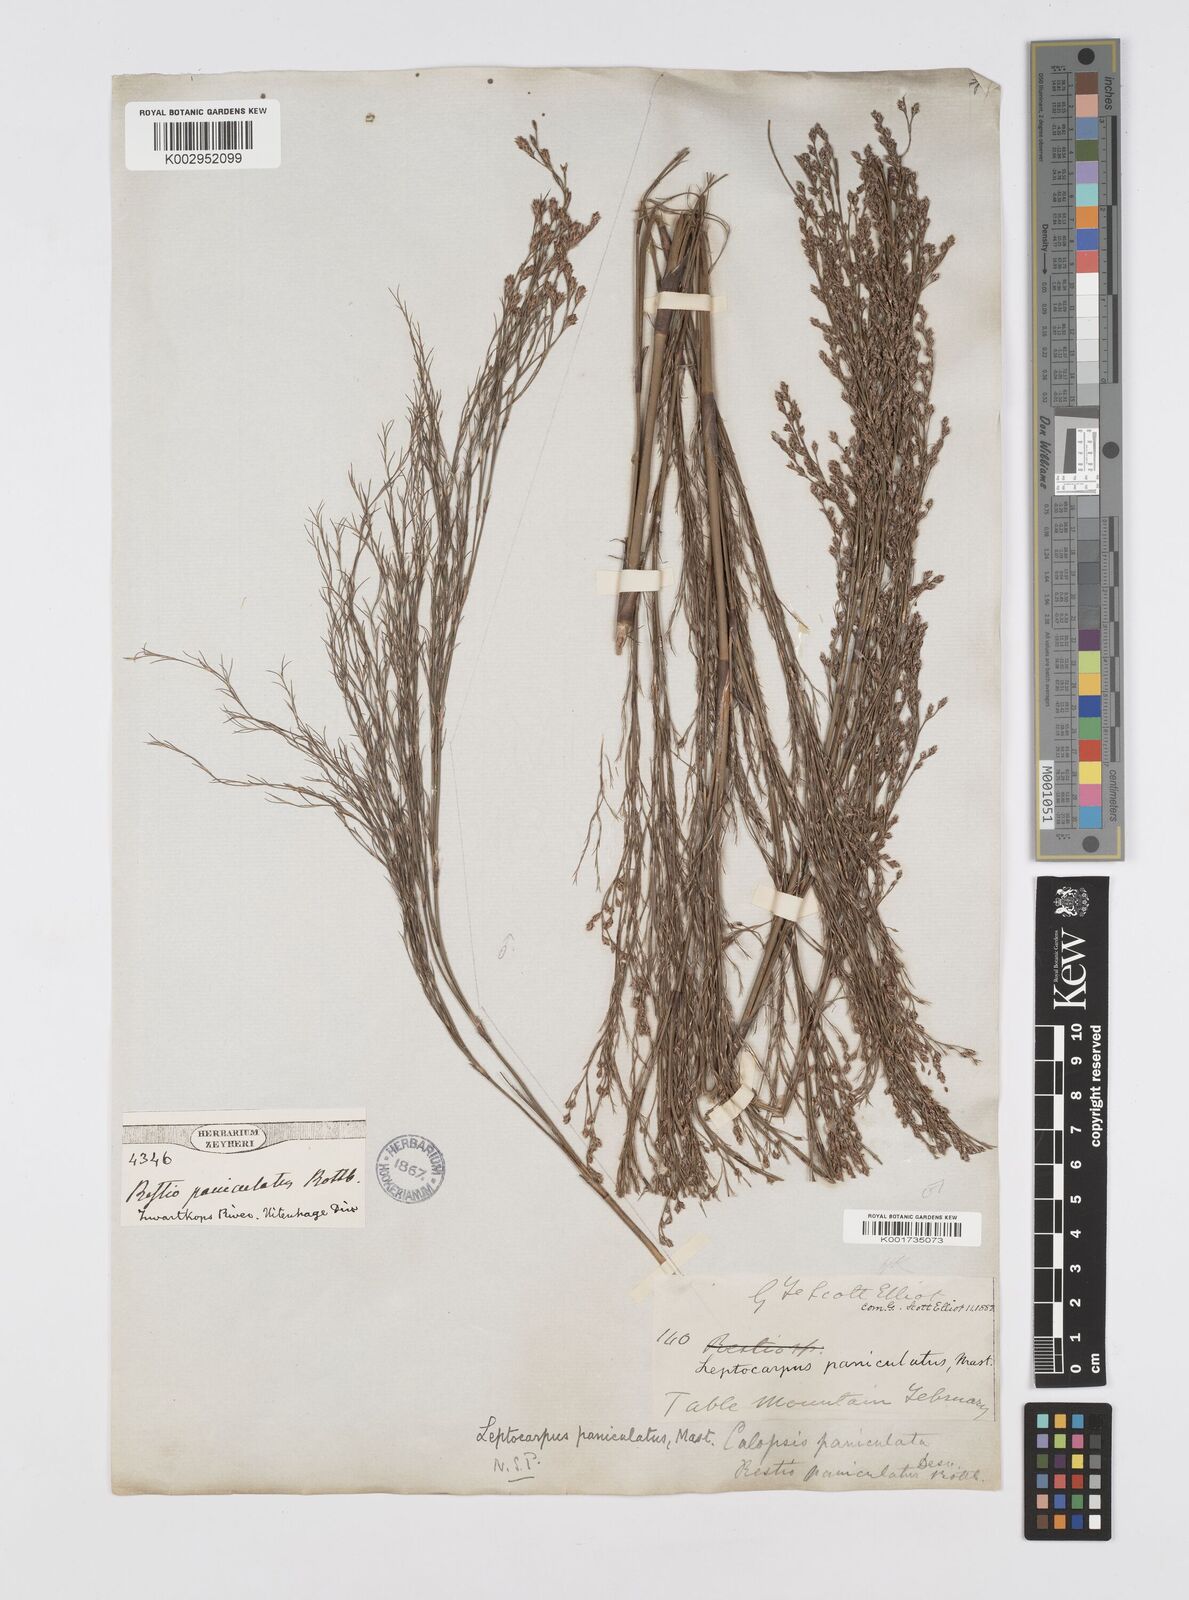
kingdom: Plantae
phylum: Tracheophyta
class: Liliopsida
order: Poales
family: Restionaceae
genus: Restio
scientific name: Restio paniculatus
